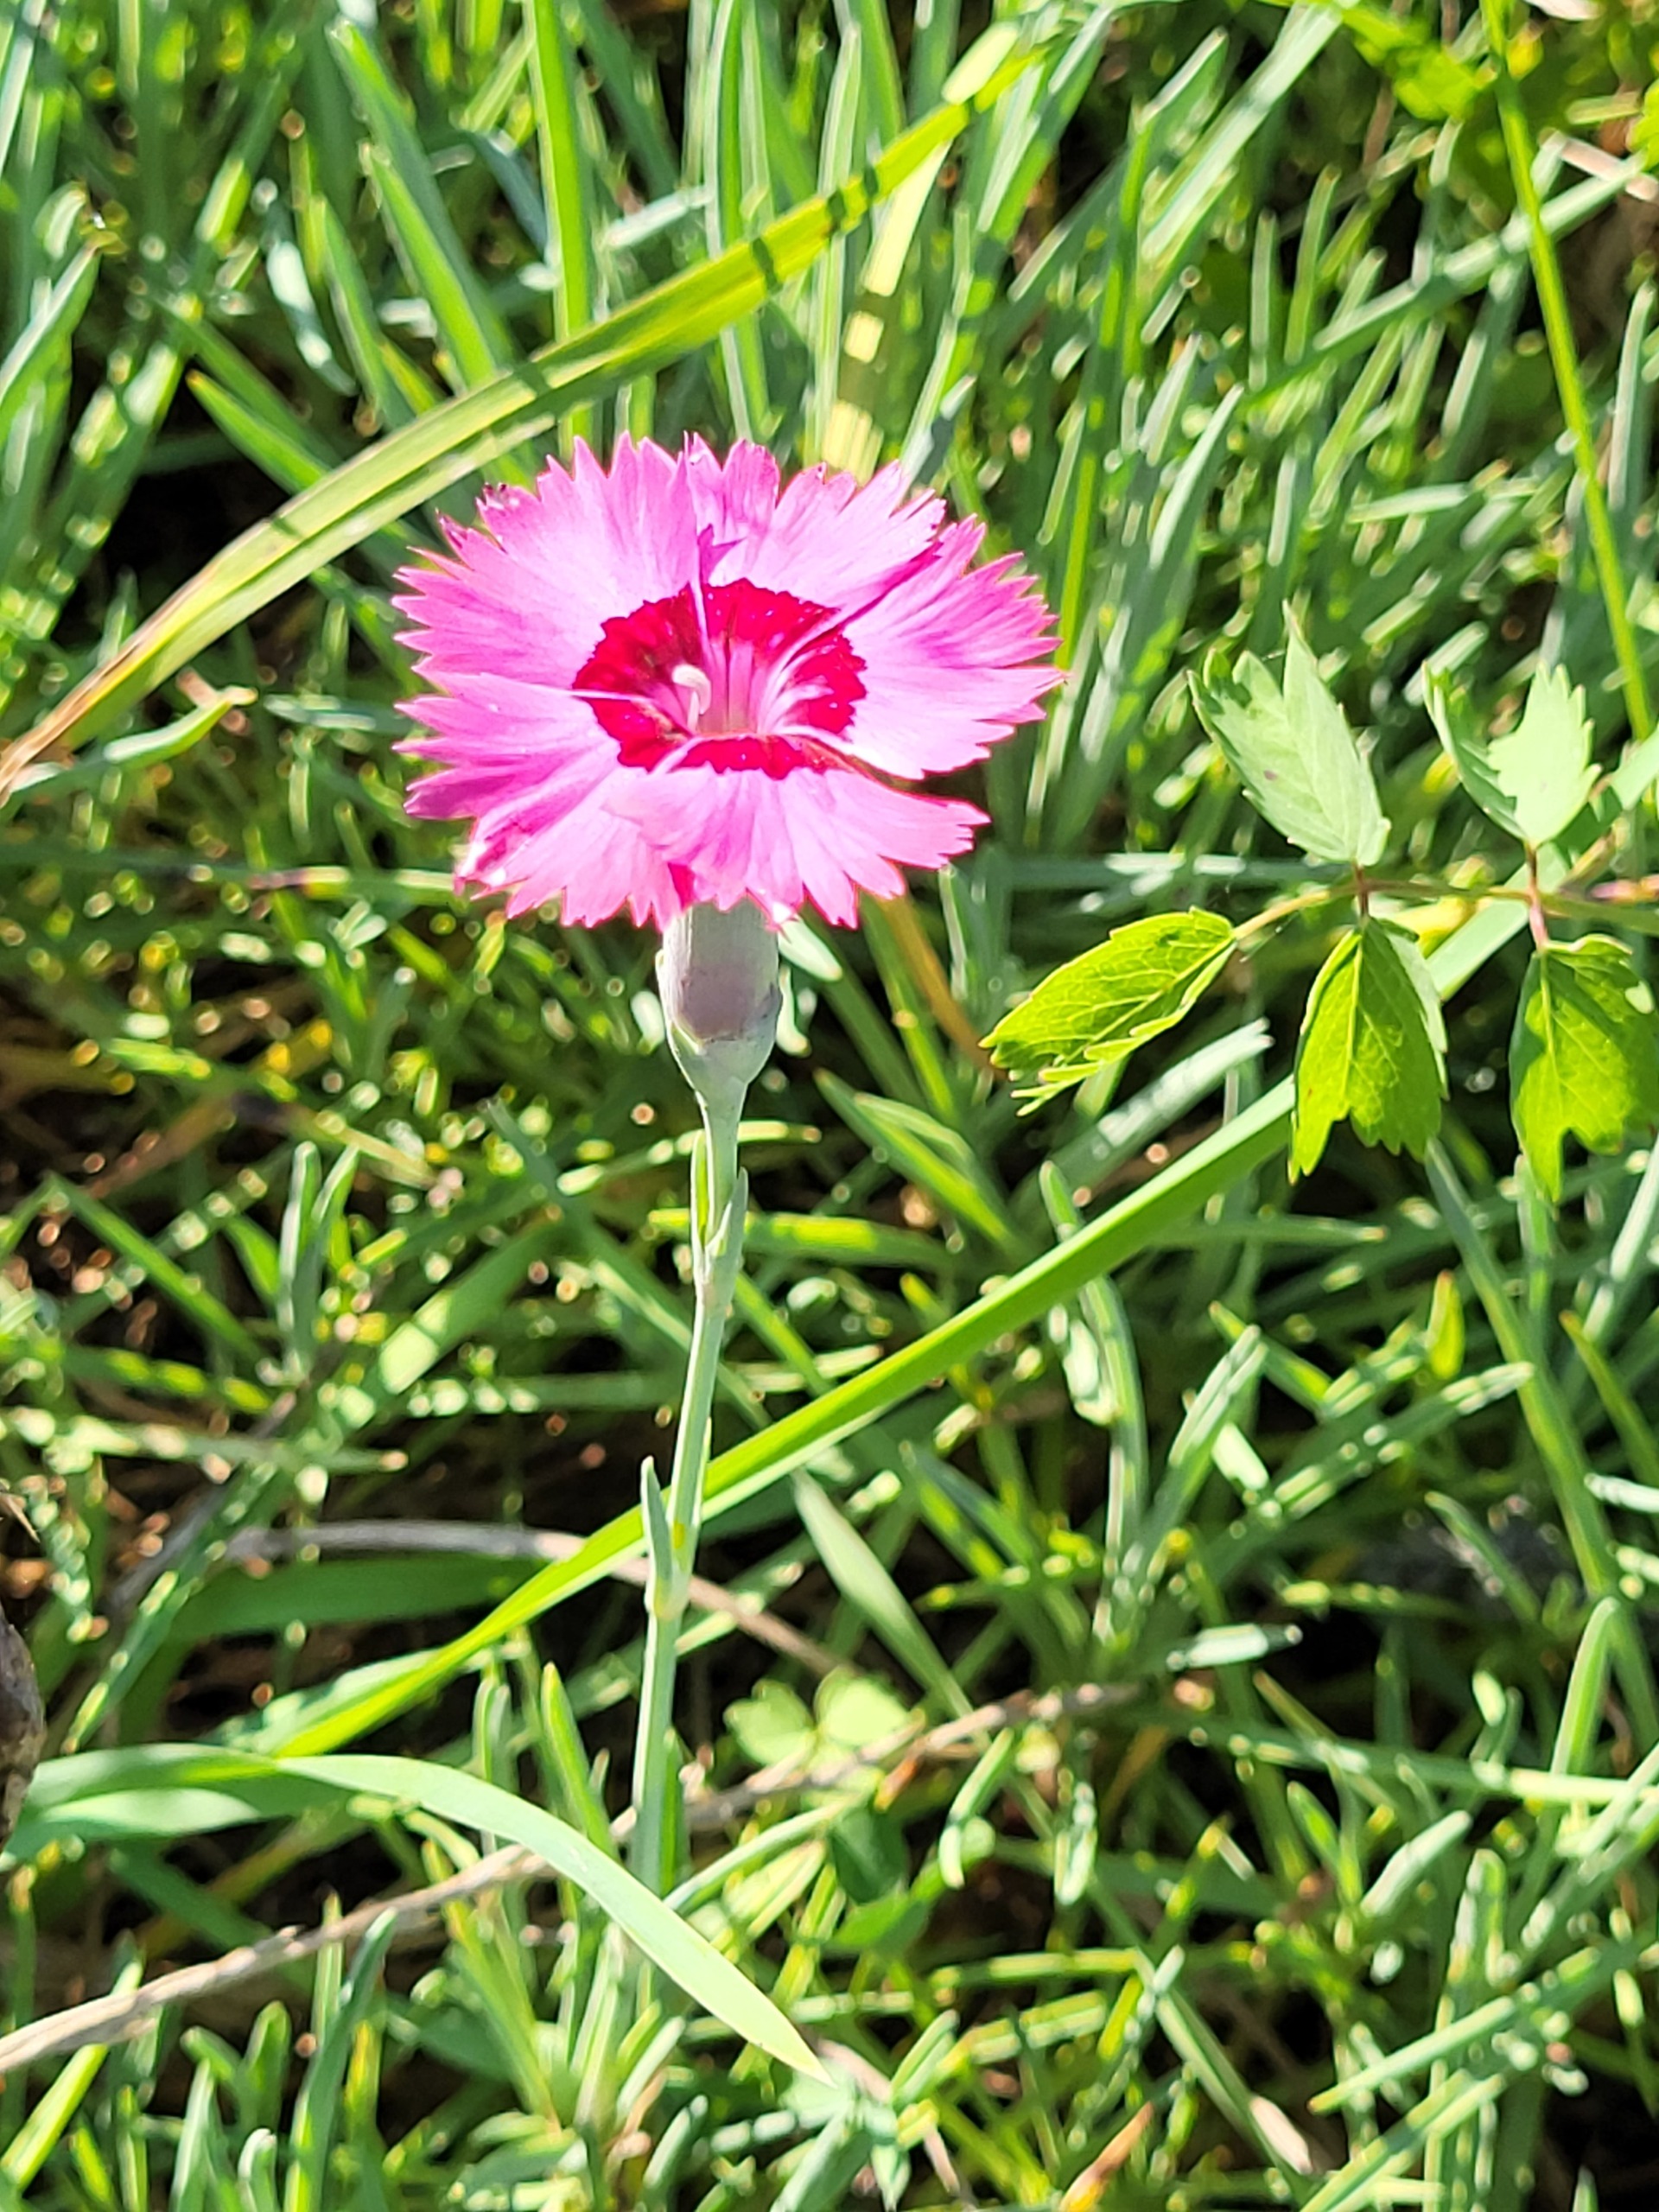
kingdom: Plantae
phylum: Tracheophyta
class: Magnoliopsida
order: Caryophyllales
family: Caryophyllaceae
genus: Dianthus
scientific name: Dianthus plumarius
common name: Fjernellike
